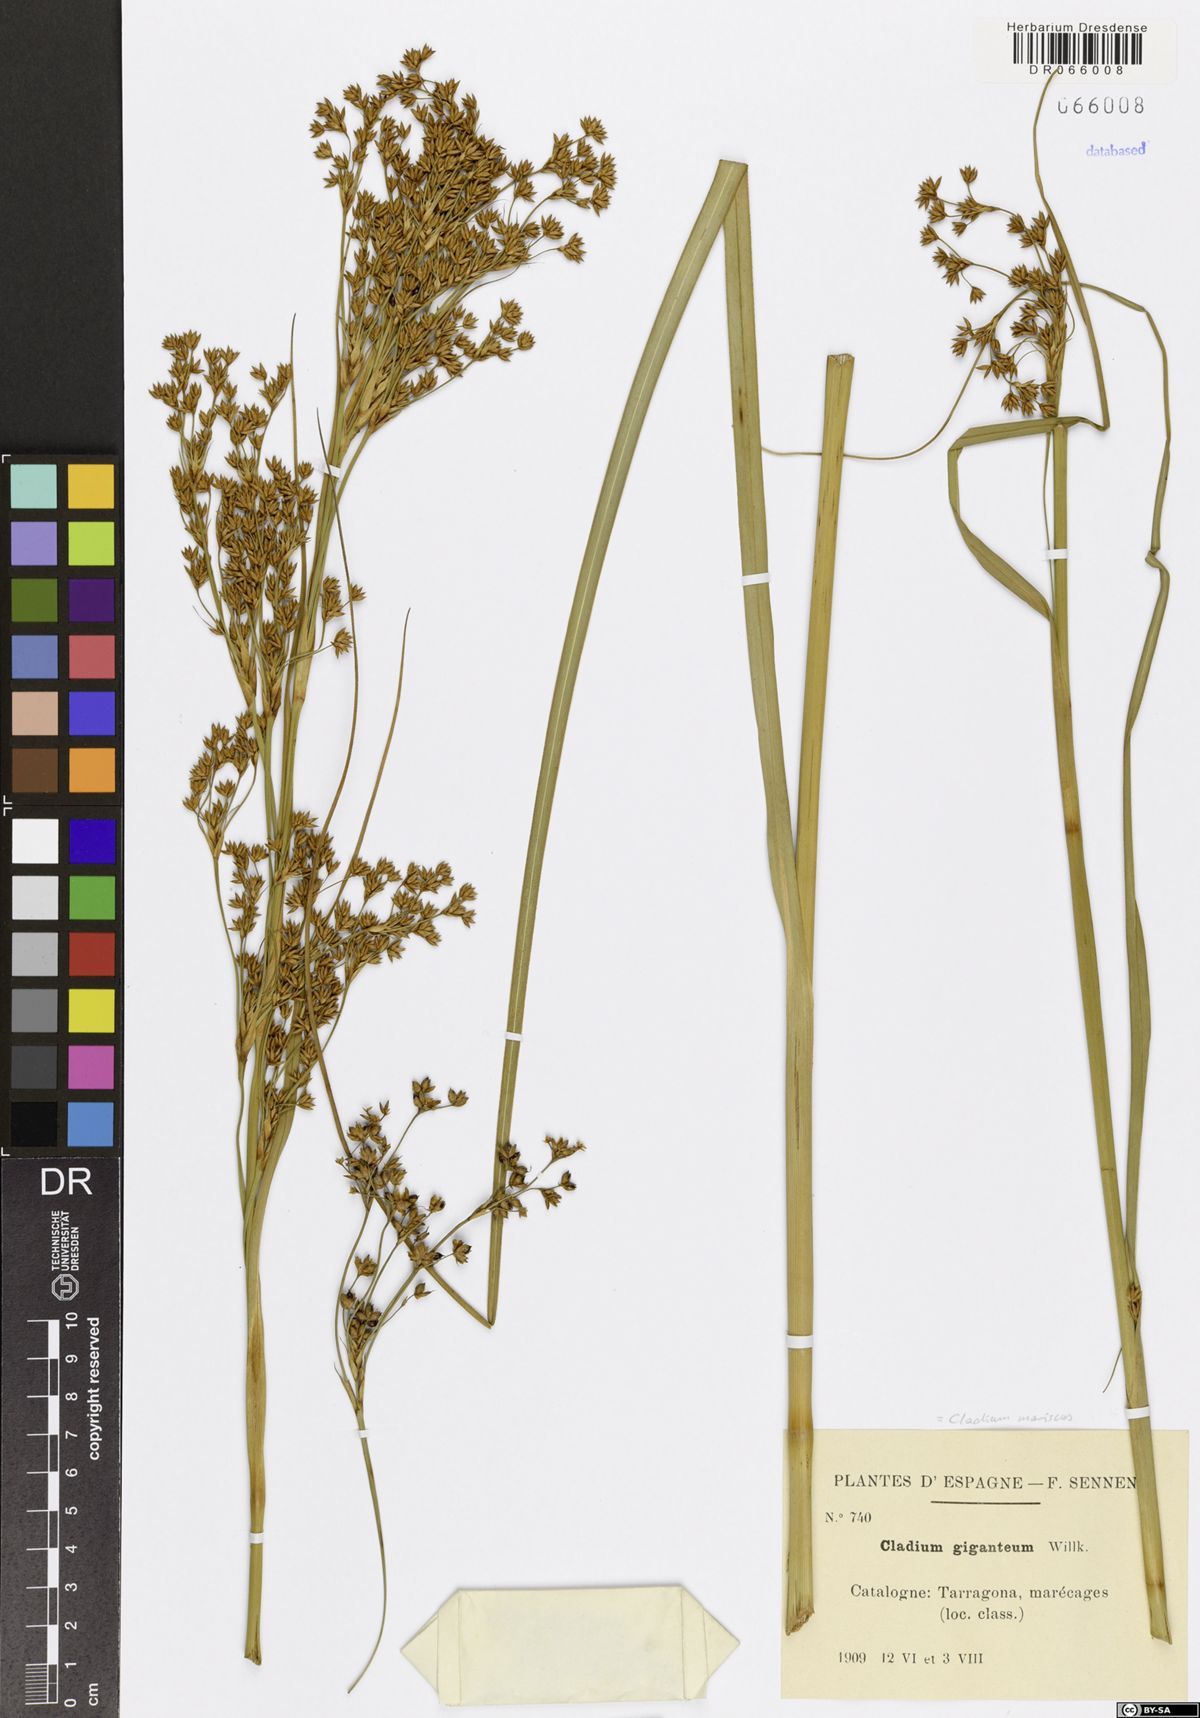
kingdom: Plantae
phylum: Tracheophyta
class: Liliopsida
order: Poales
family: Cyperaceae
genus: Cladium
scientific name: Cladium mariscus
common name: Great fen-sedge
